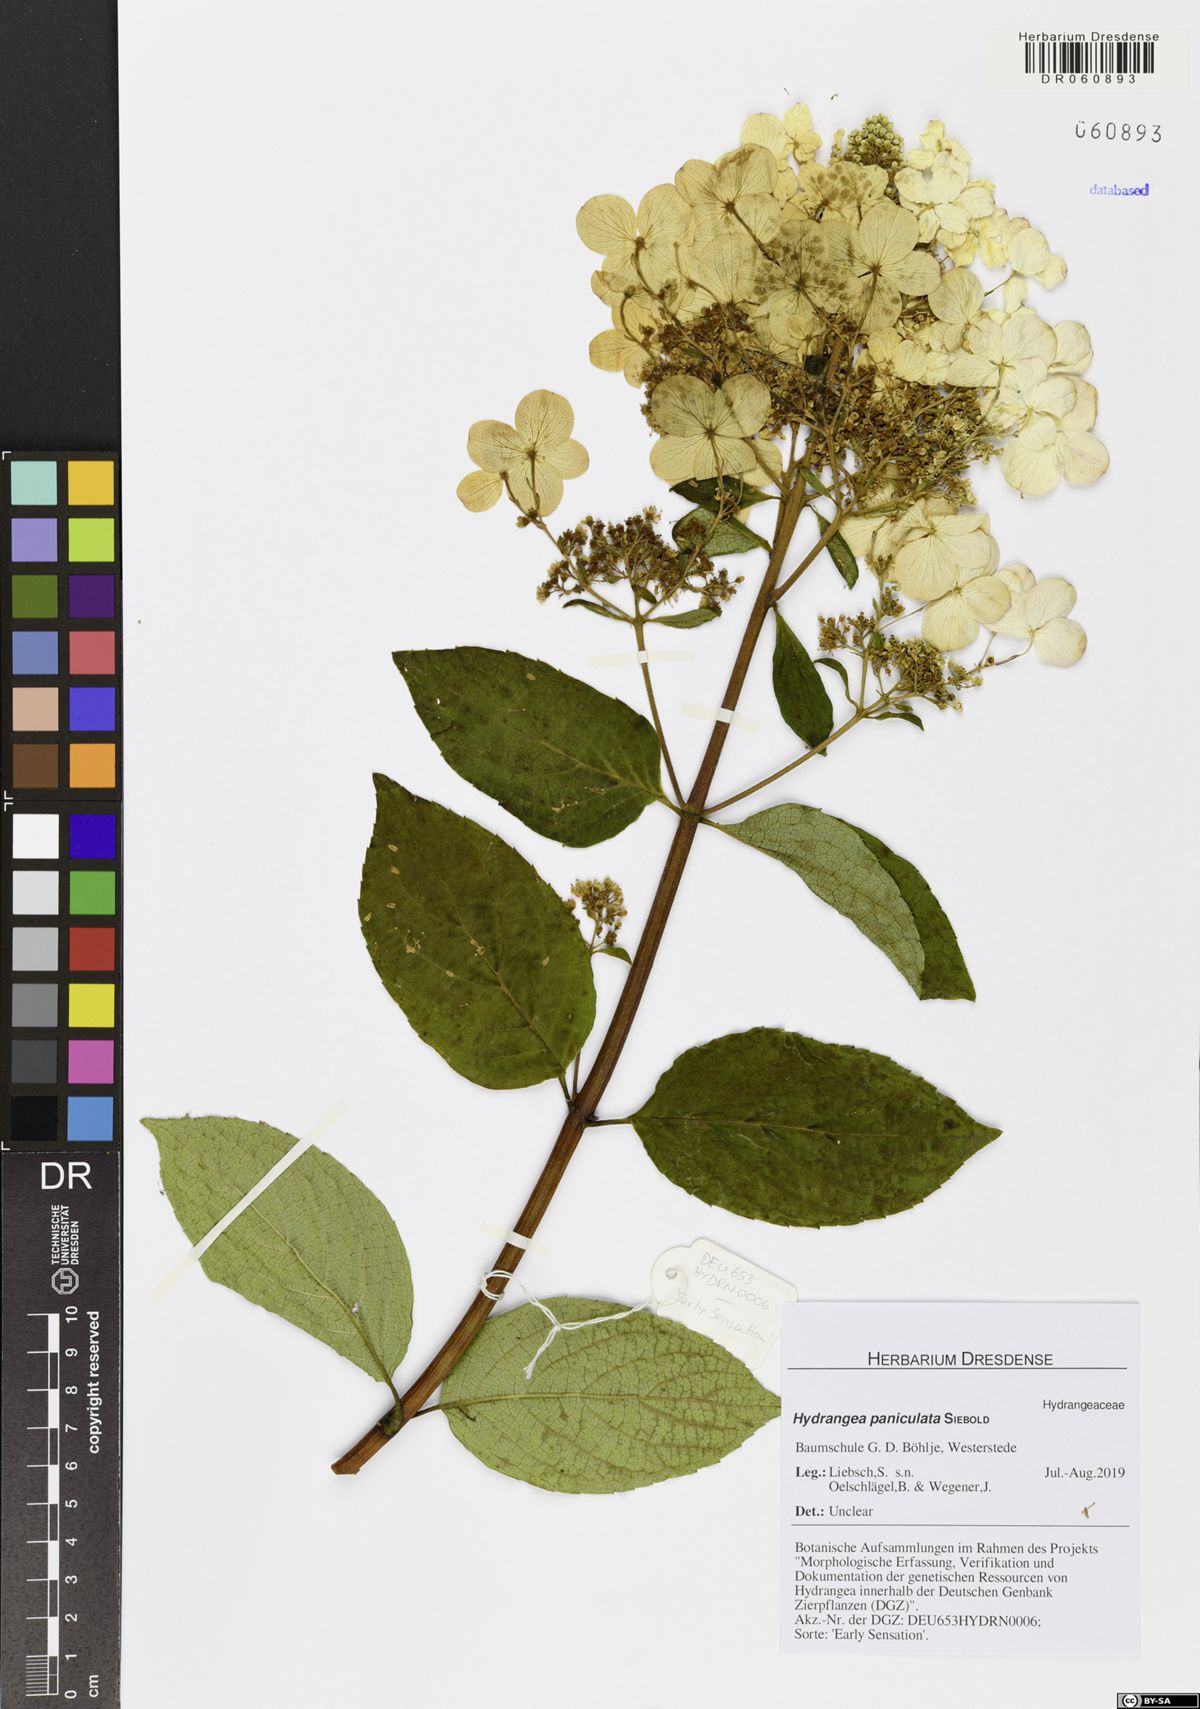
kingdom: Plantae
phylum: Tracheophyta
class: Magnoliopsida
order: Cornales
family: Hydrangeaceae
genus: Hydrangea
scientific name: Hydrangea paniculata
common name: Panicled hydrangea
